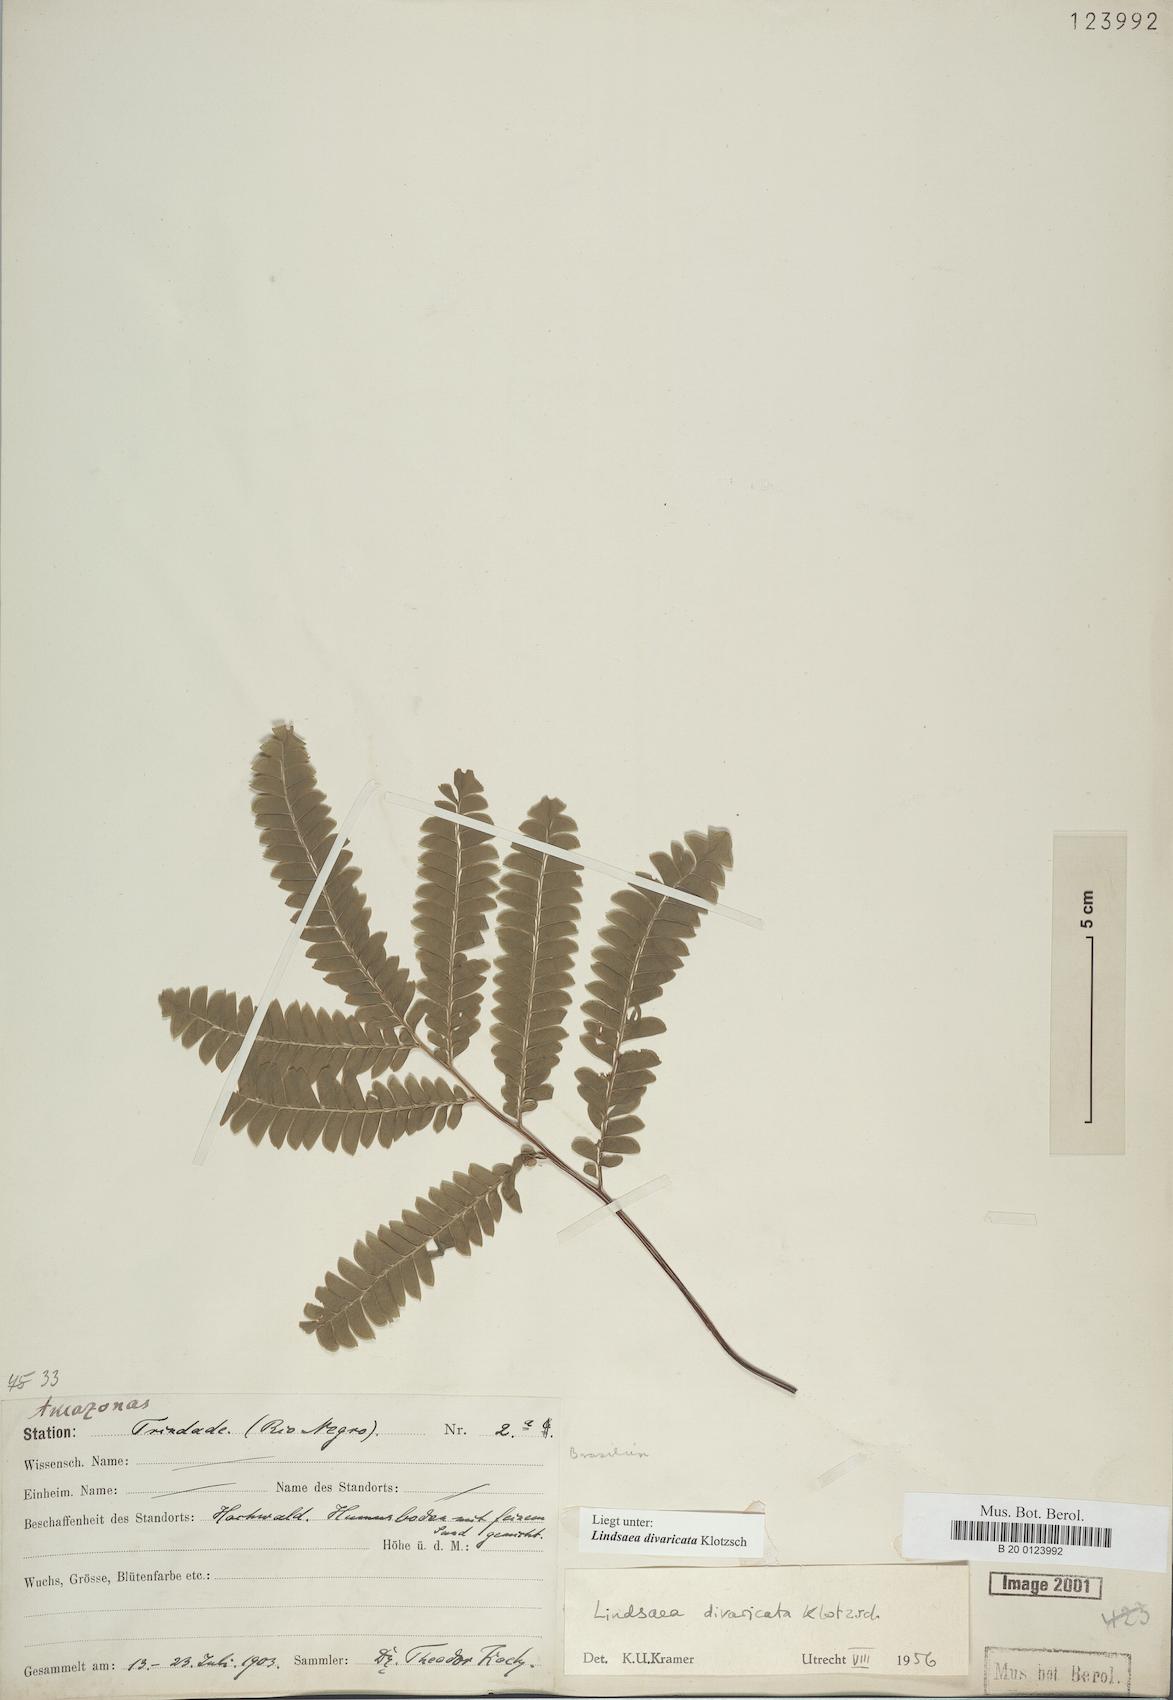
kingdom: Plantae
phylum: Tracheophyta
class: Polypodiopsida
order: Polypodiales
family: Lindsaeaceae
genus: Lindsaea
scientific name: Lindsaea divaricata
